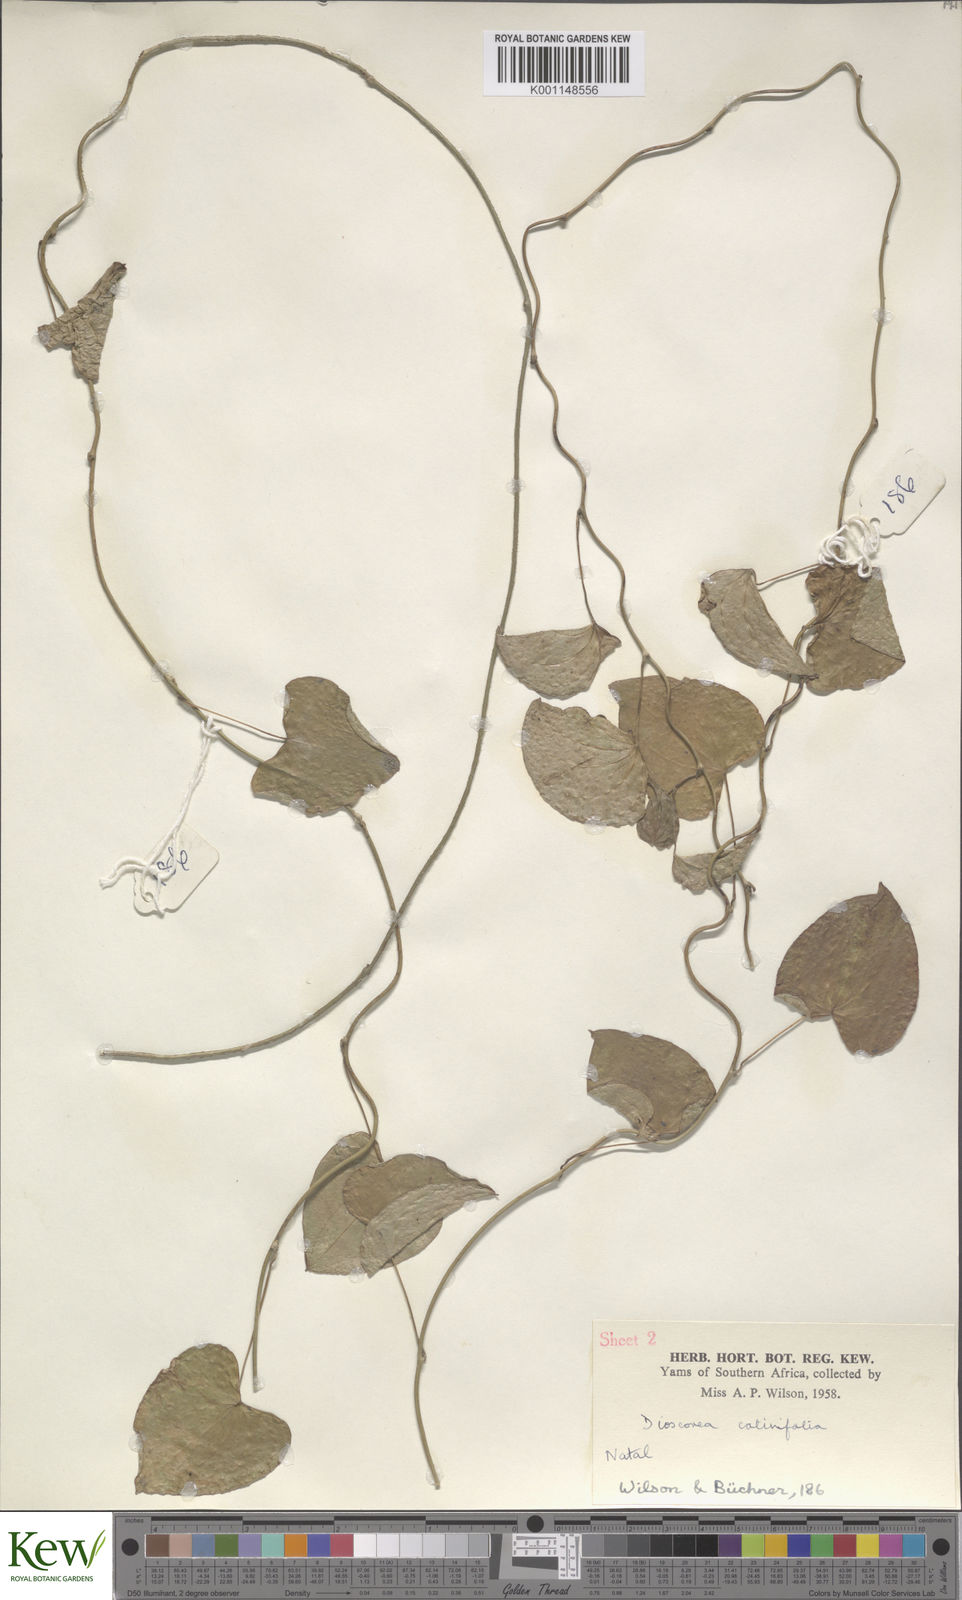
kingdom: Plantae
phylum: Tracheophyta
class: Liliopsida
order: Dioscoreales
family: Dioscoreaceae
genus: Dioscorea
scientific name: Dioscorea cotinifolia
